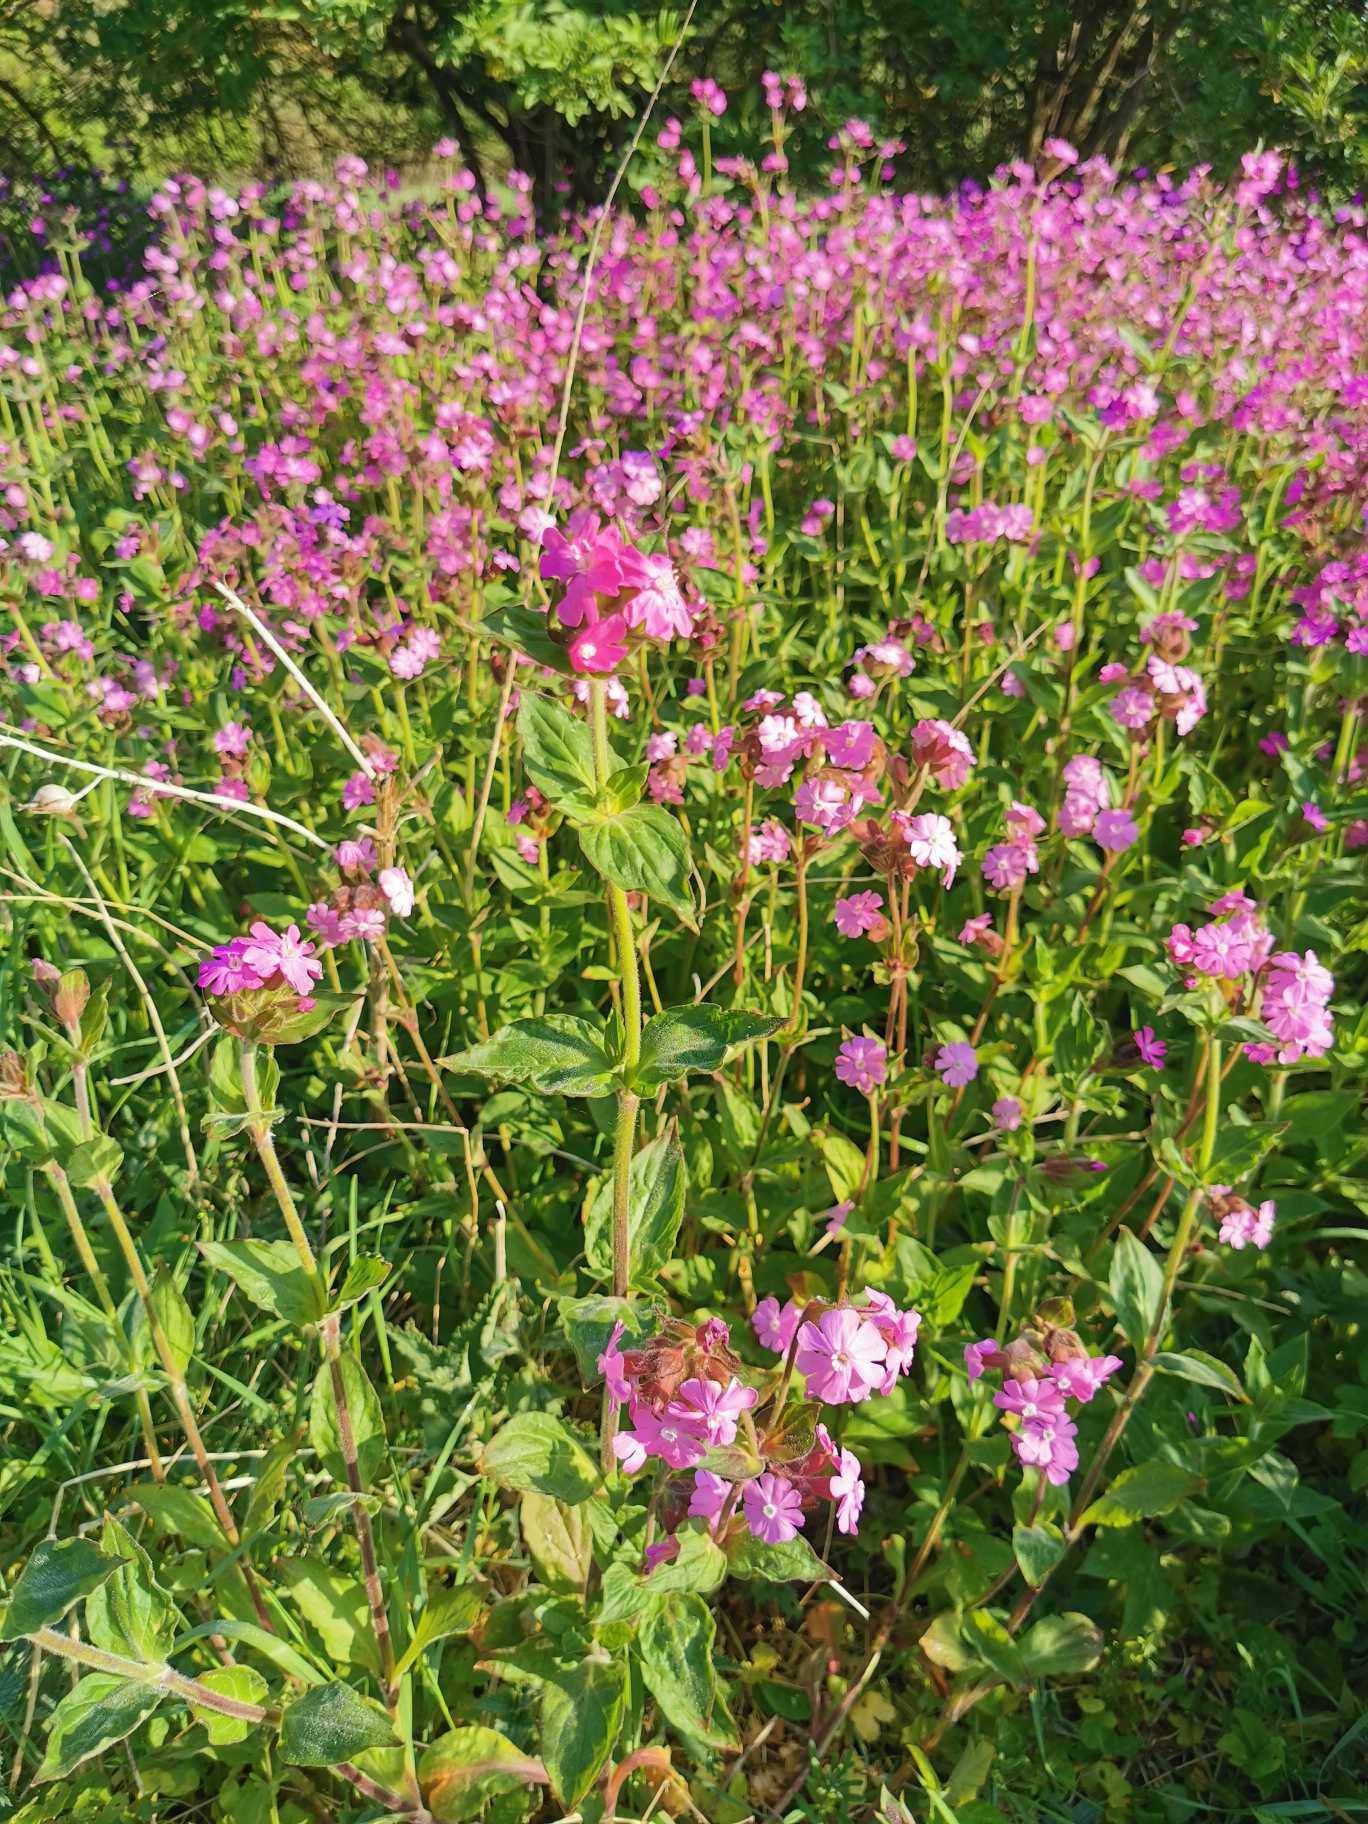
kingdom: Plantae
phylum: Tracheophyta
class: Magnoliopsida
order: Caryophyllales
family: Caryophyllaceae
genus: Silene
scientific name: Silene dioica
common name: Dagpragtstjerne
